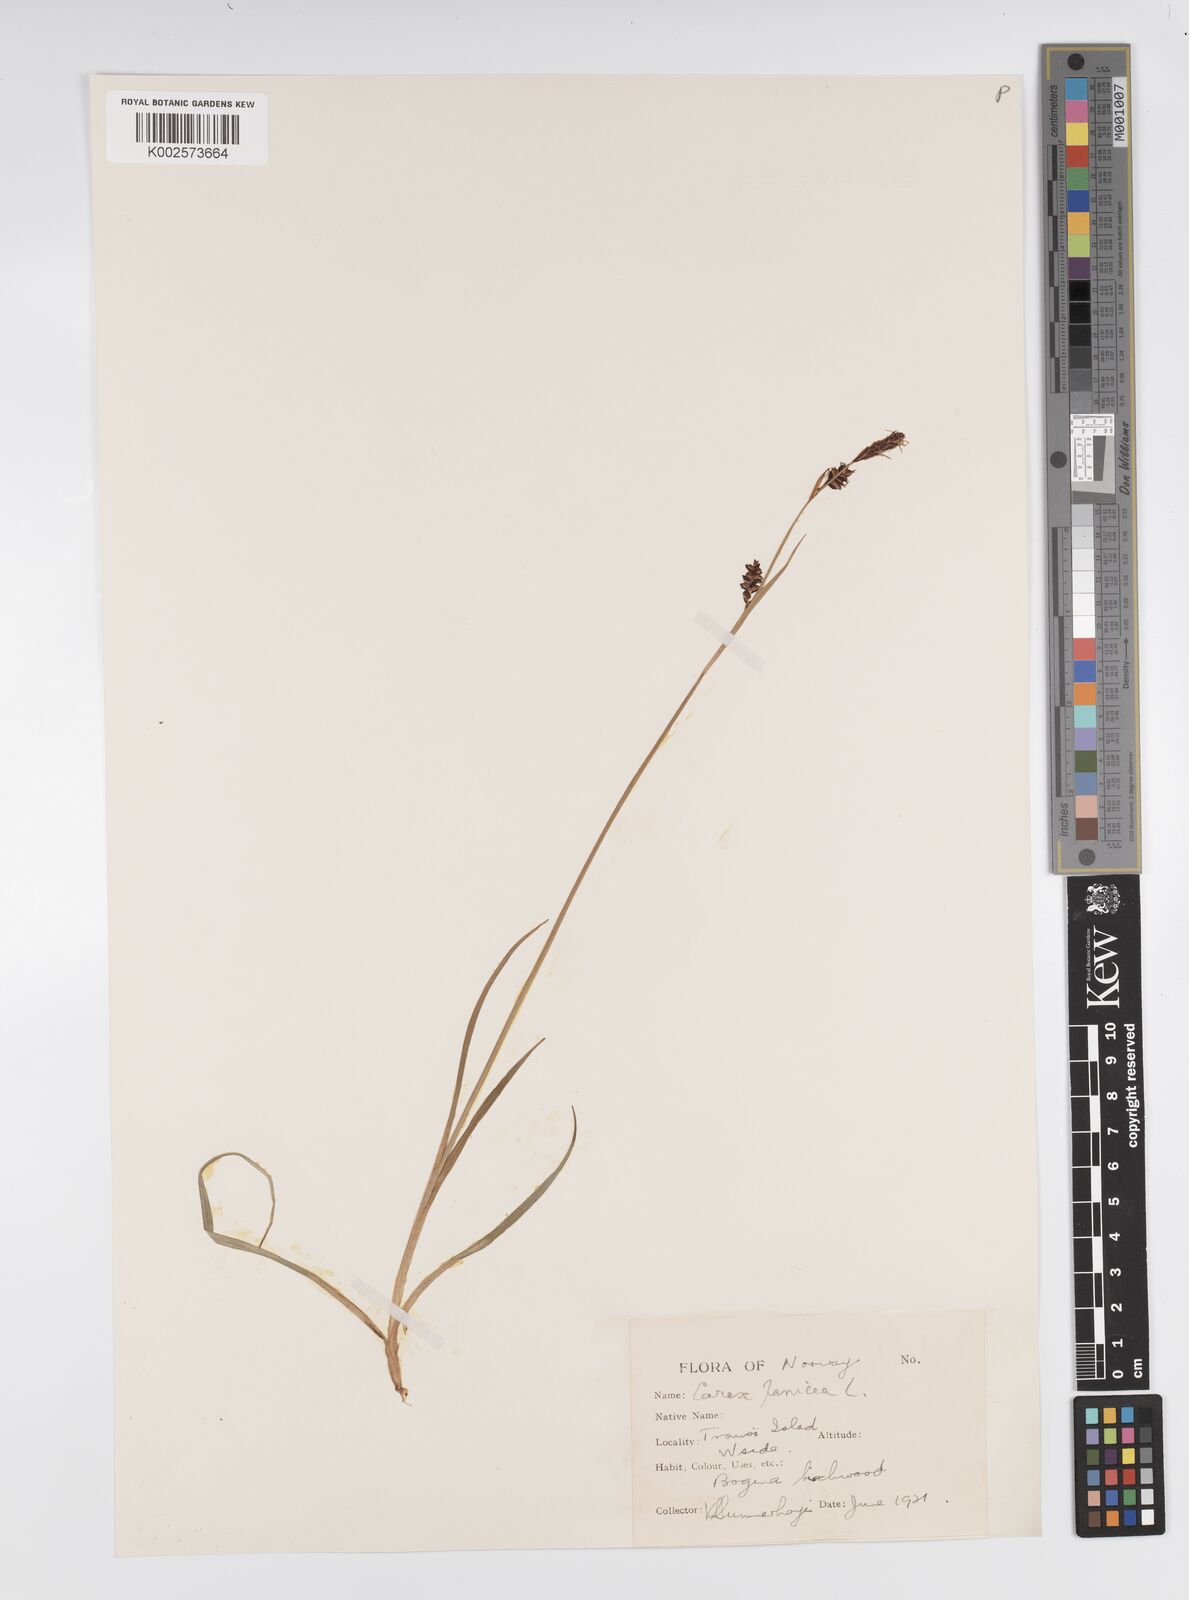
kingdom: Plantae
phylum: Tracheophyta
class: Liliopsida
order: Poales
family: Cyperaceae
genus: Carex
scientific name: Carex panicea
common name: Carnation sedge
